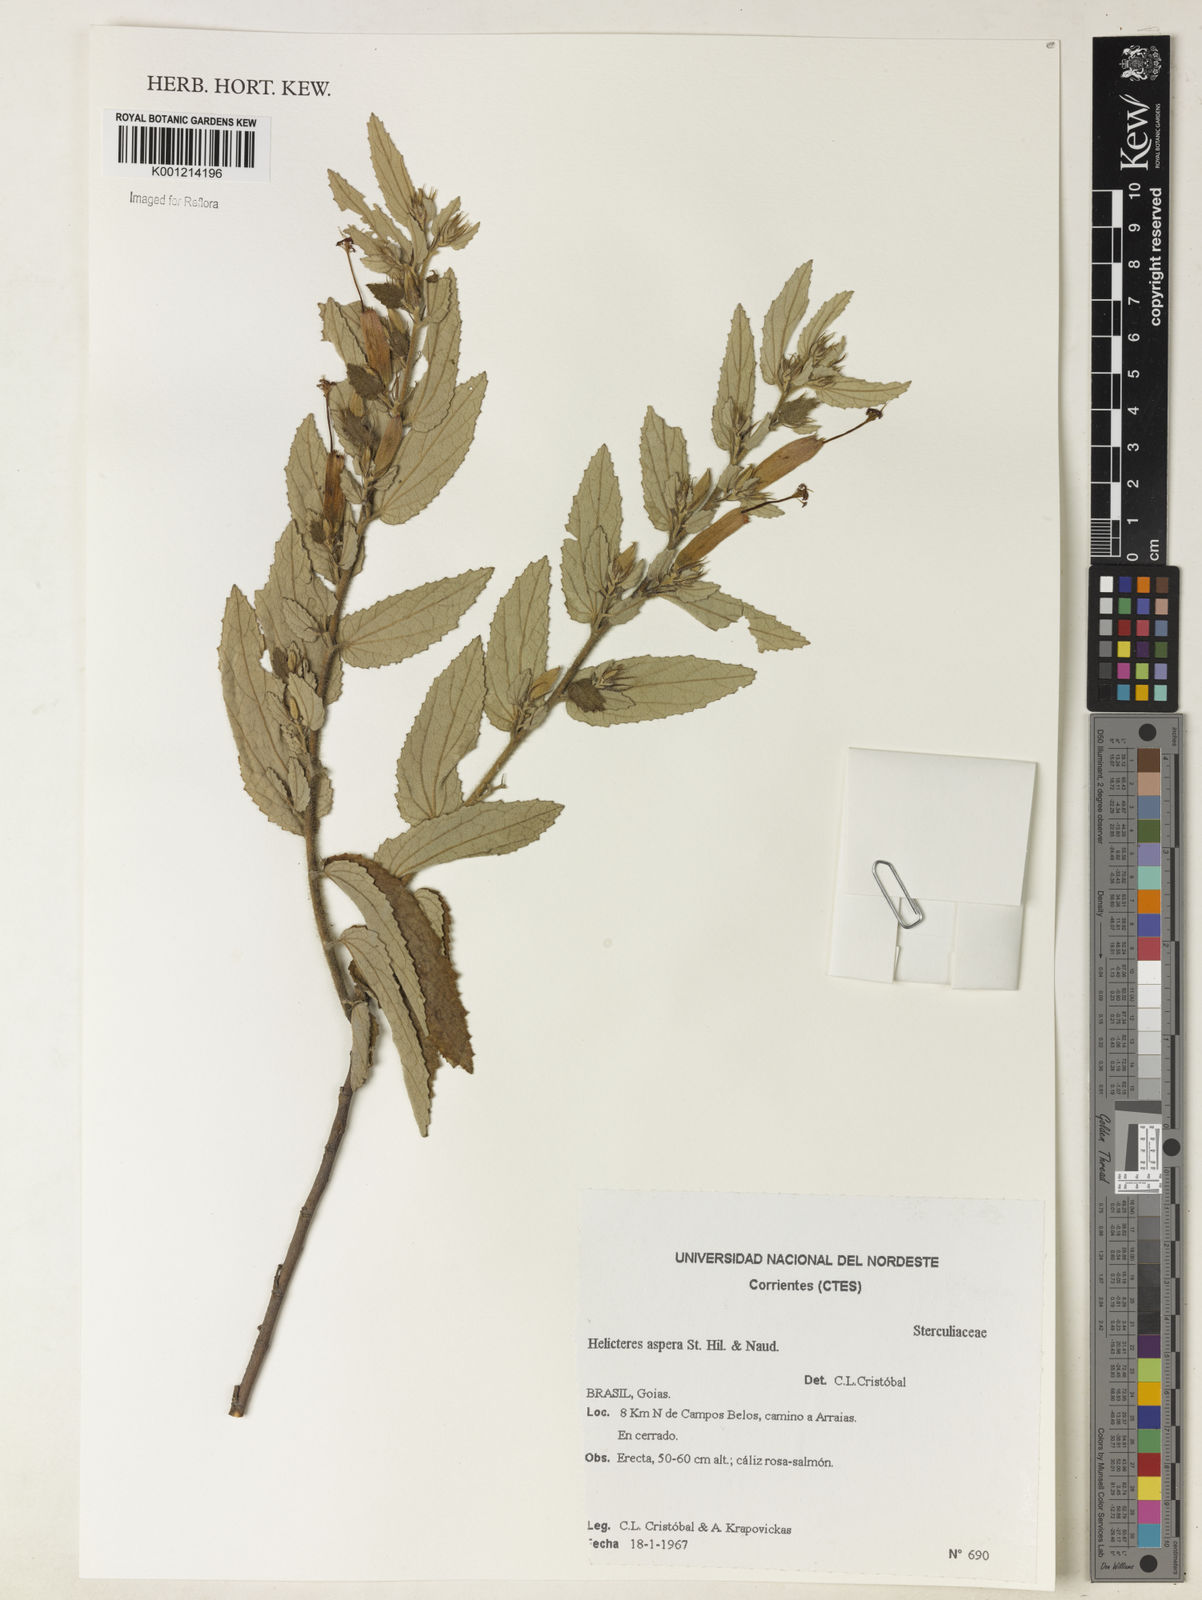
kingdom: Plantae
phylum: Tracheophyta
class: Magnoliopsida
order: Malvales
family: Malvaceae
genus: Helicteres
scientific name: Helicteres aspera
